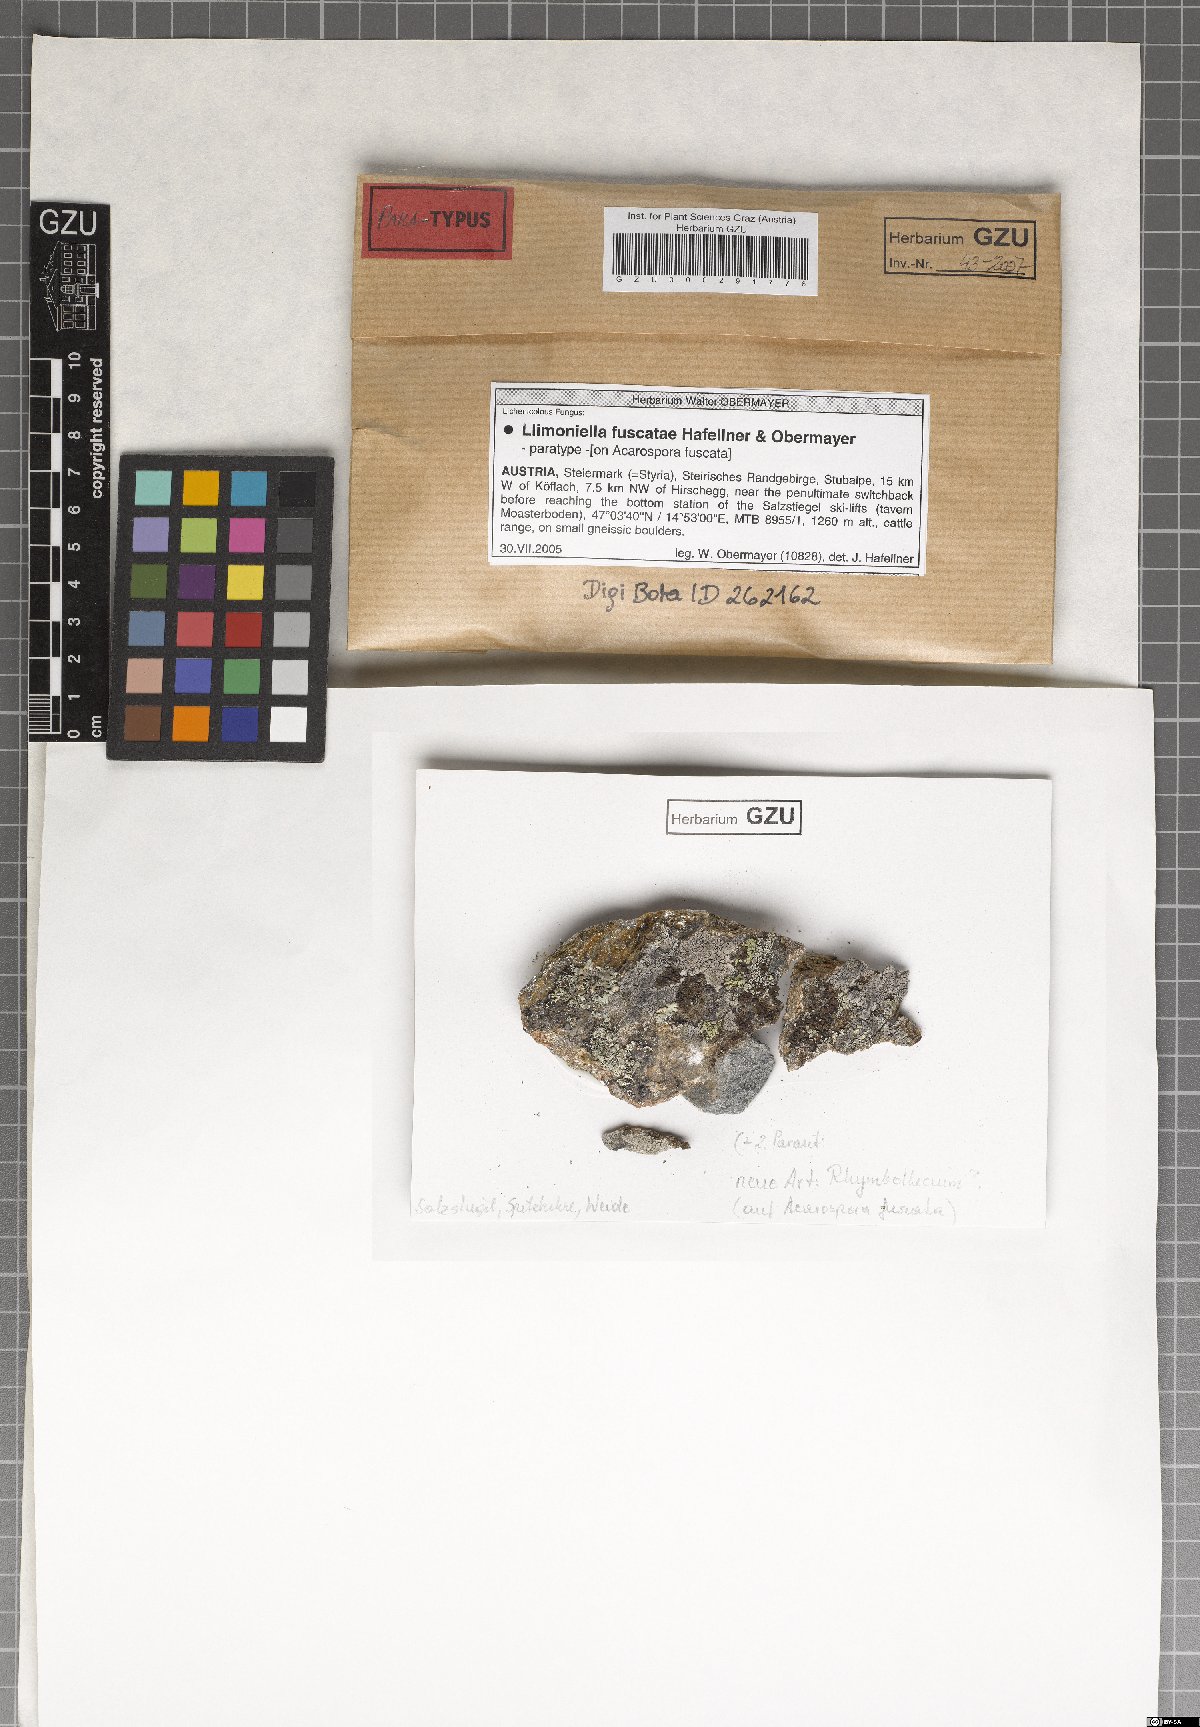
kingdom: Fungi
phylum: Ascomycota
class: Leotiomycetes
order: Helotiales
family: Cordieritidaceae
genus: Llimoniella
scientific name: Llimoniella fuscatae
